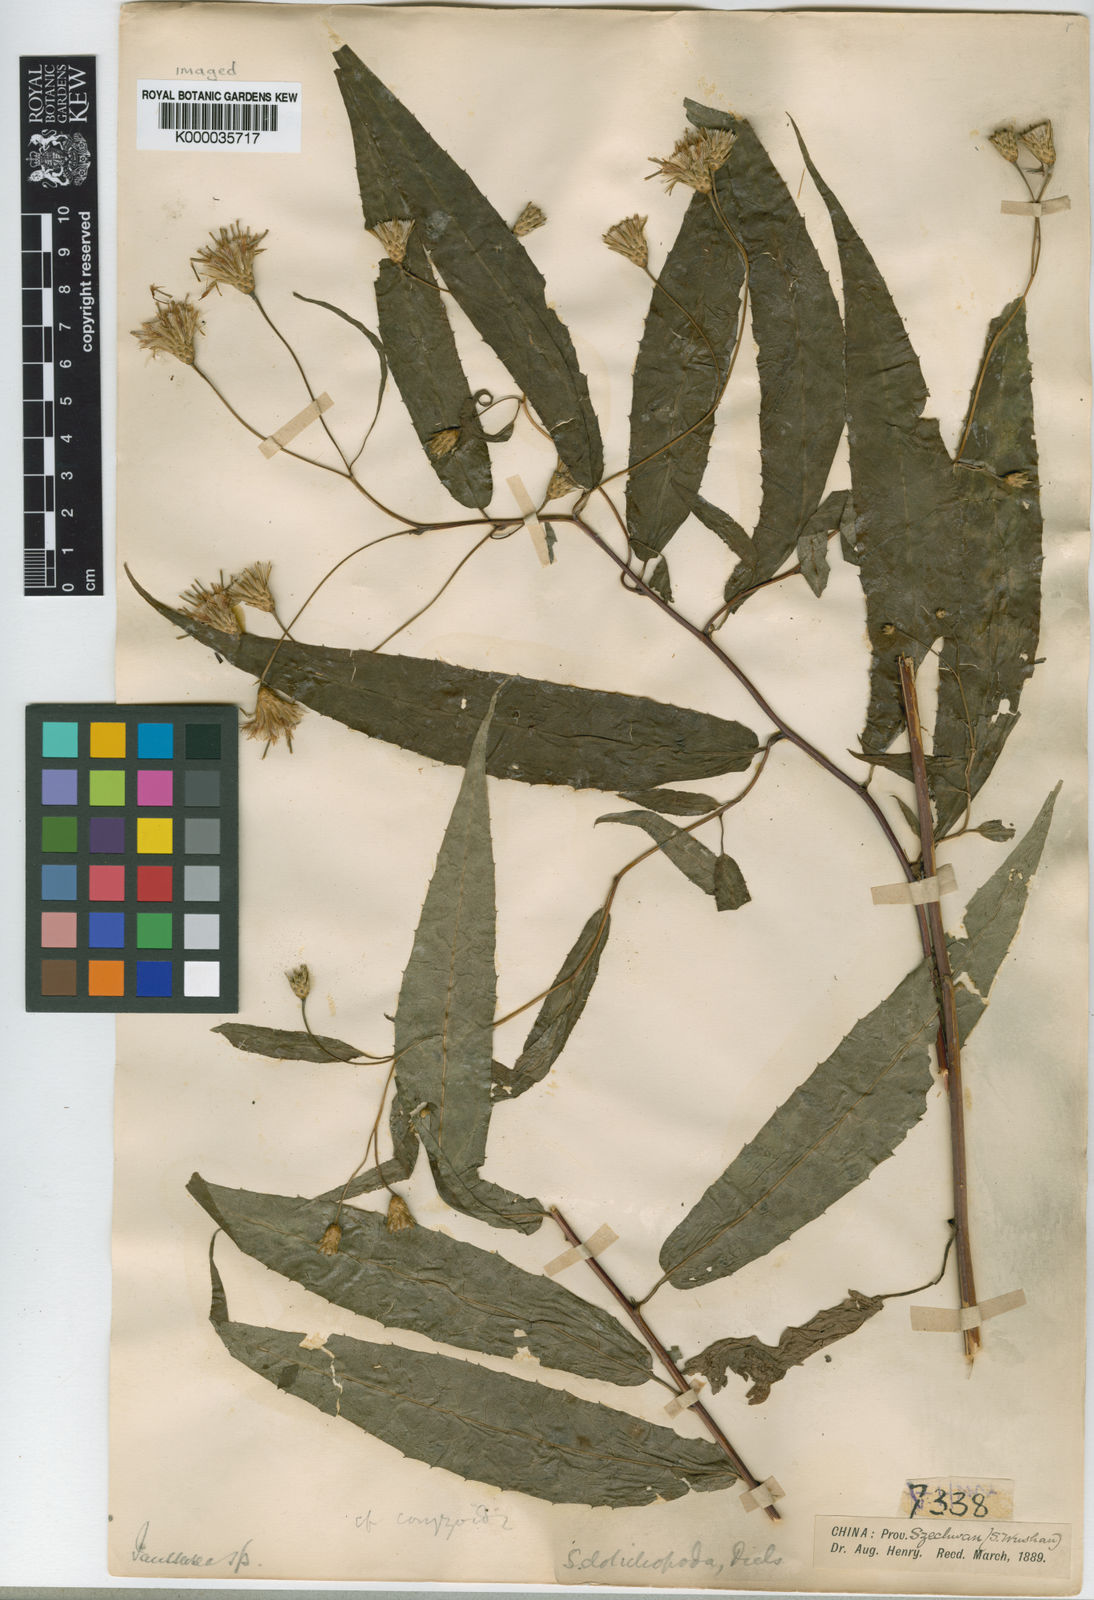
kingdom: Plantae
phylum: Tracheophyta
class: Magnoliopsida
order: Asterales
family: Asteraceae
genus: Saussurea
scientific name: Saussurea dolichopoda
